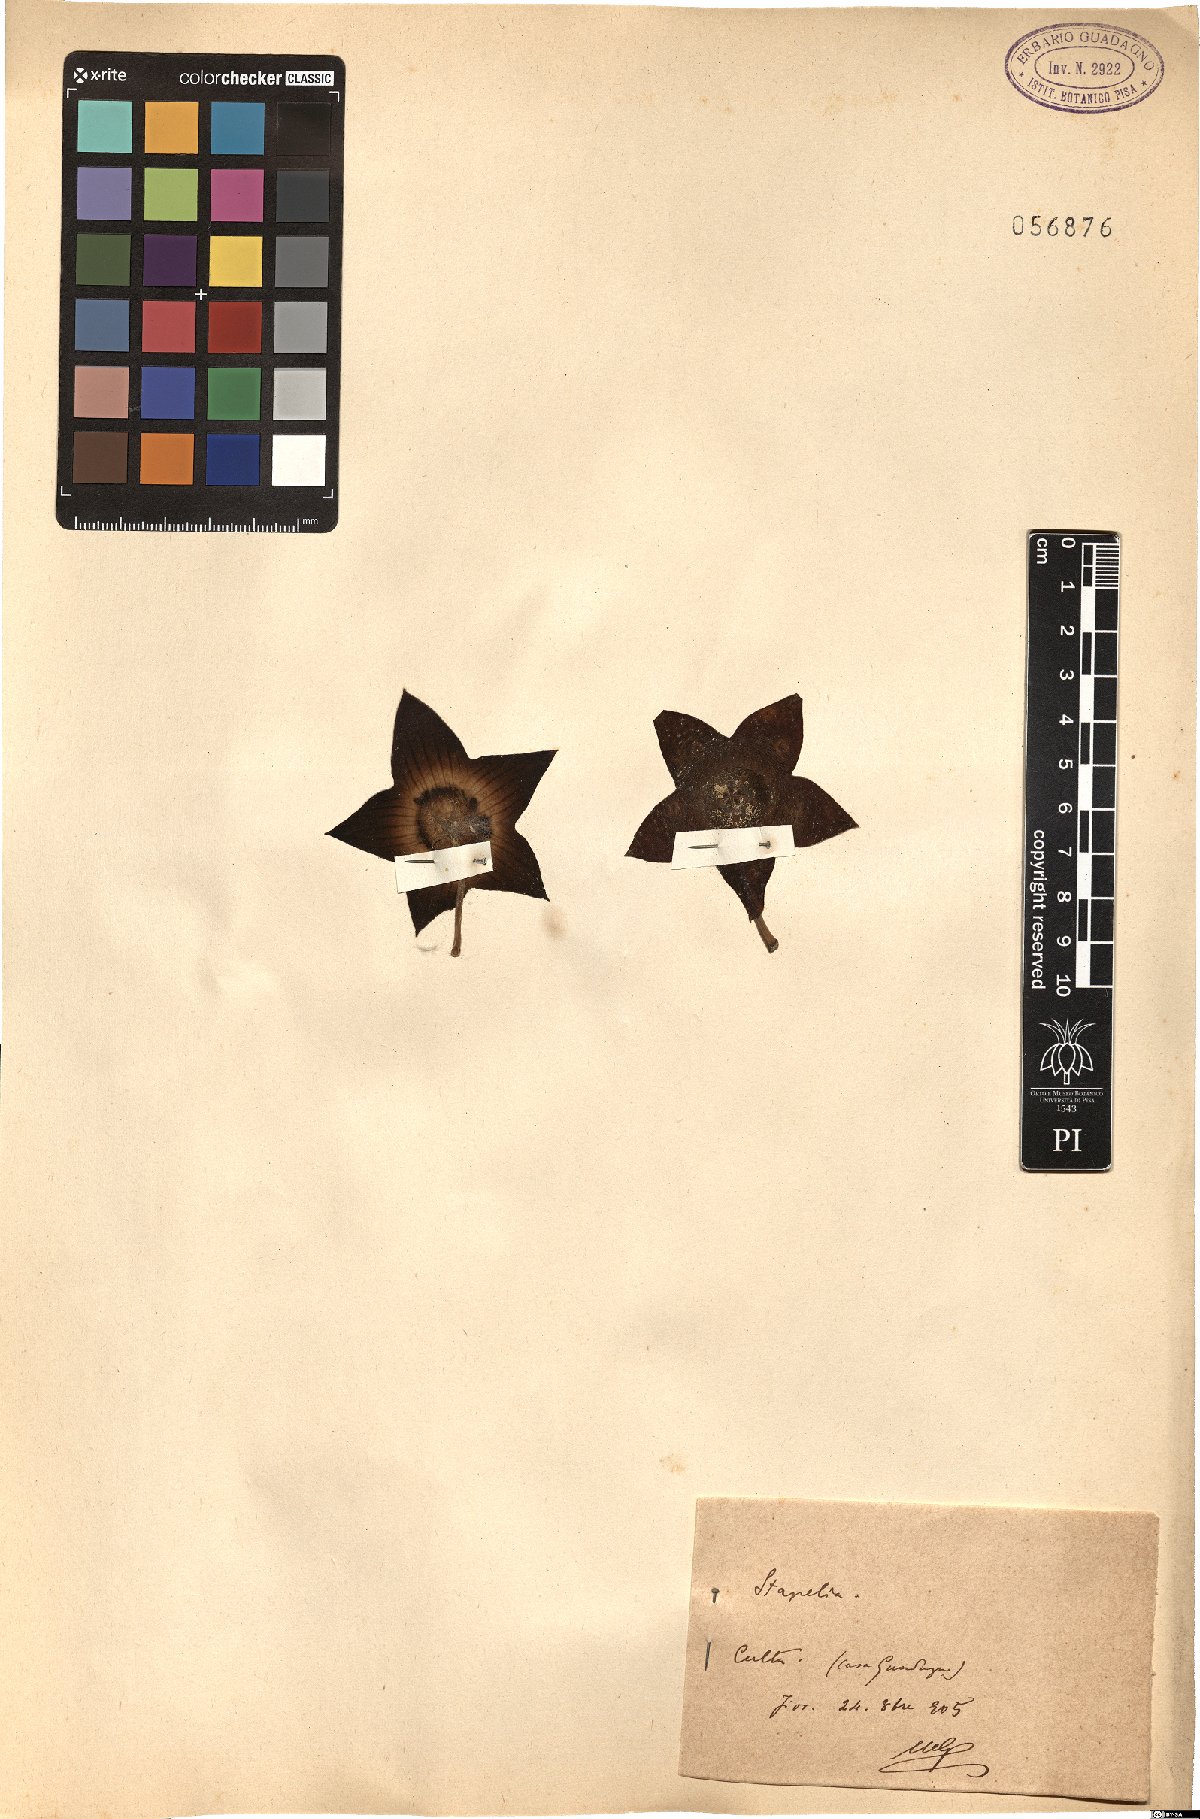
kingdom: Plantae
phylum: Tracheophyta
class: Magnoliopsida
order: Gentianales
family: Apocynaceae
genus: Stapelia
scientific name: Stapelia
